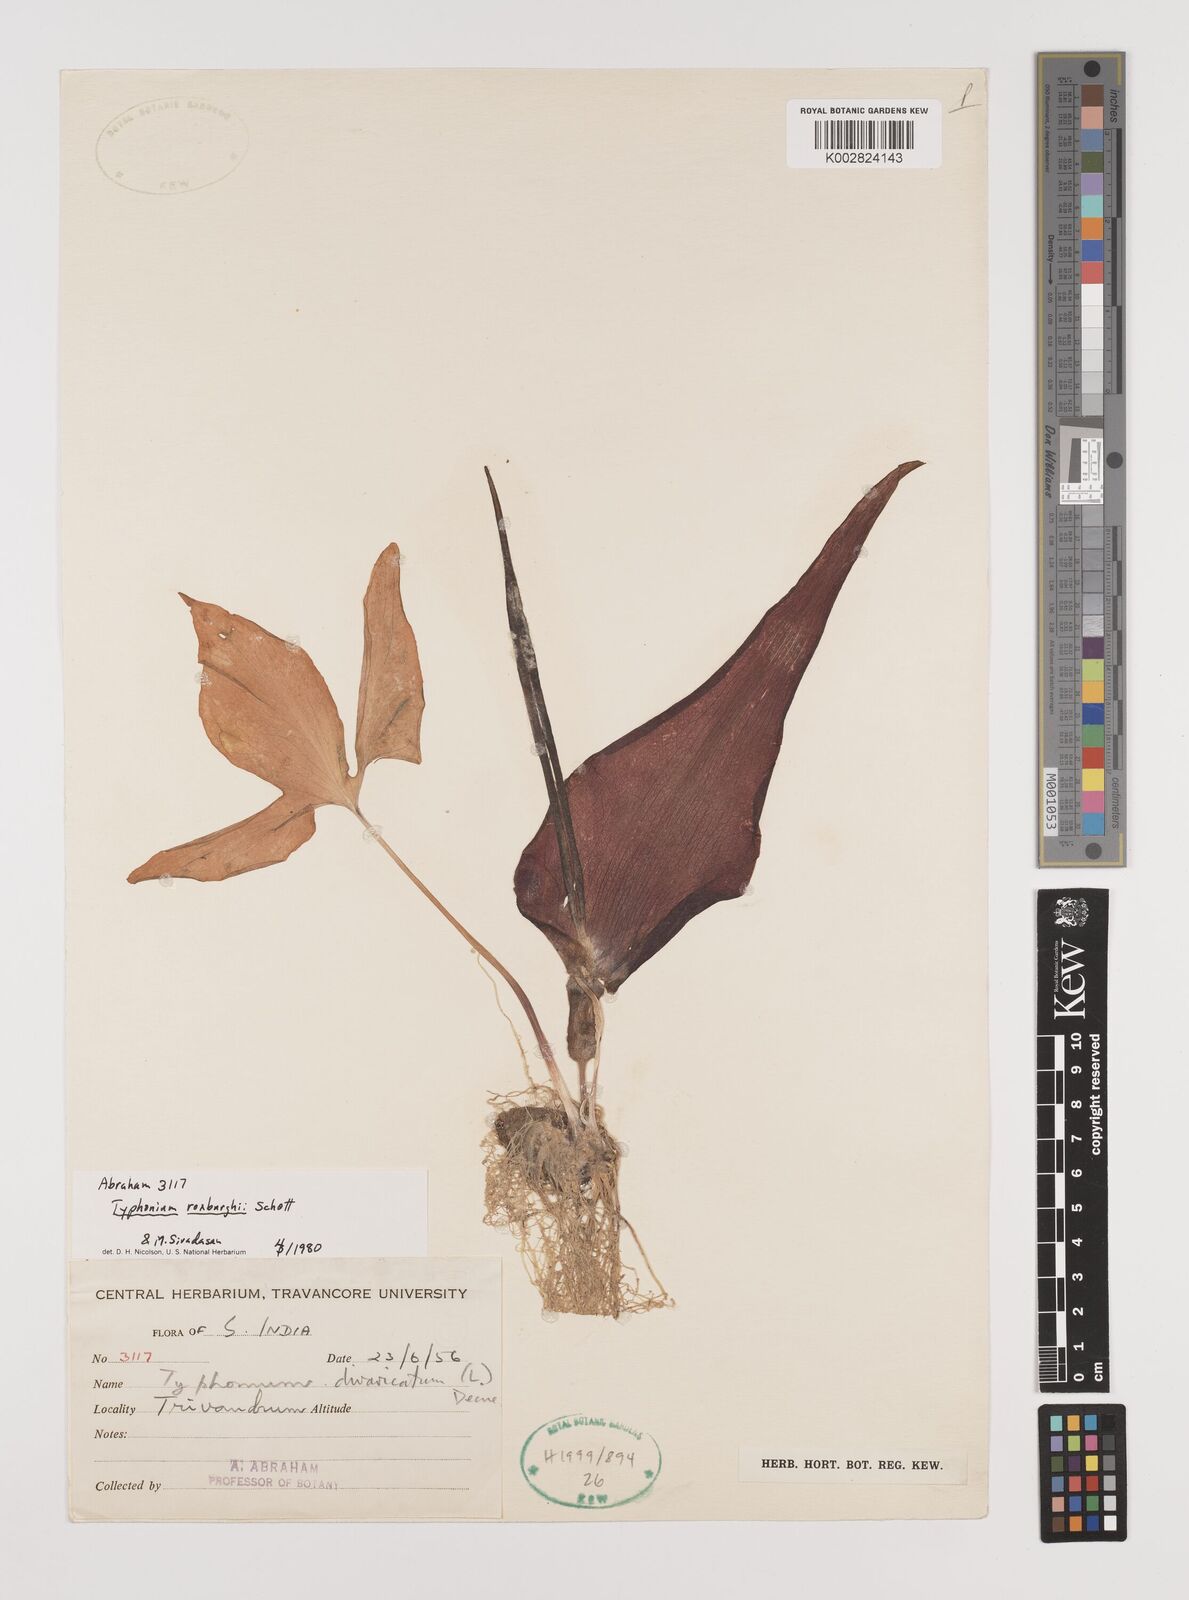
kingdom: Plantae
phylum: Tracheophyta
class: Liliopsida
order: Alismatales
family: Araceae
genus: Typhonium
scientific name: Typhonium roxburghii
